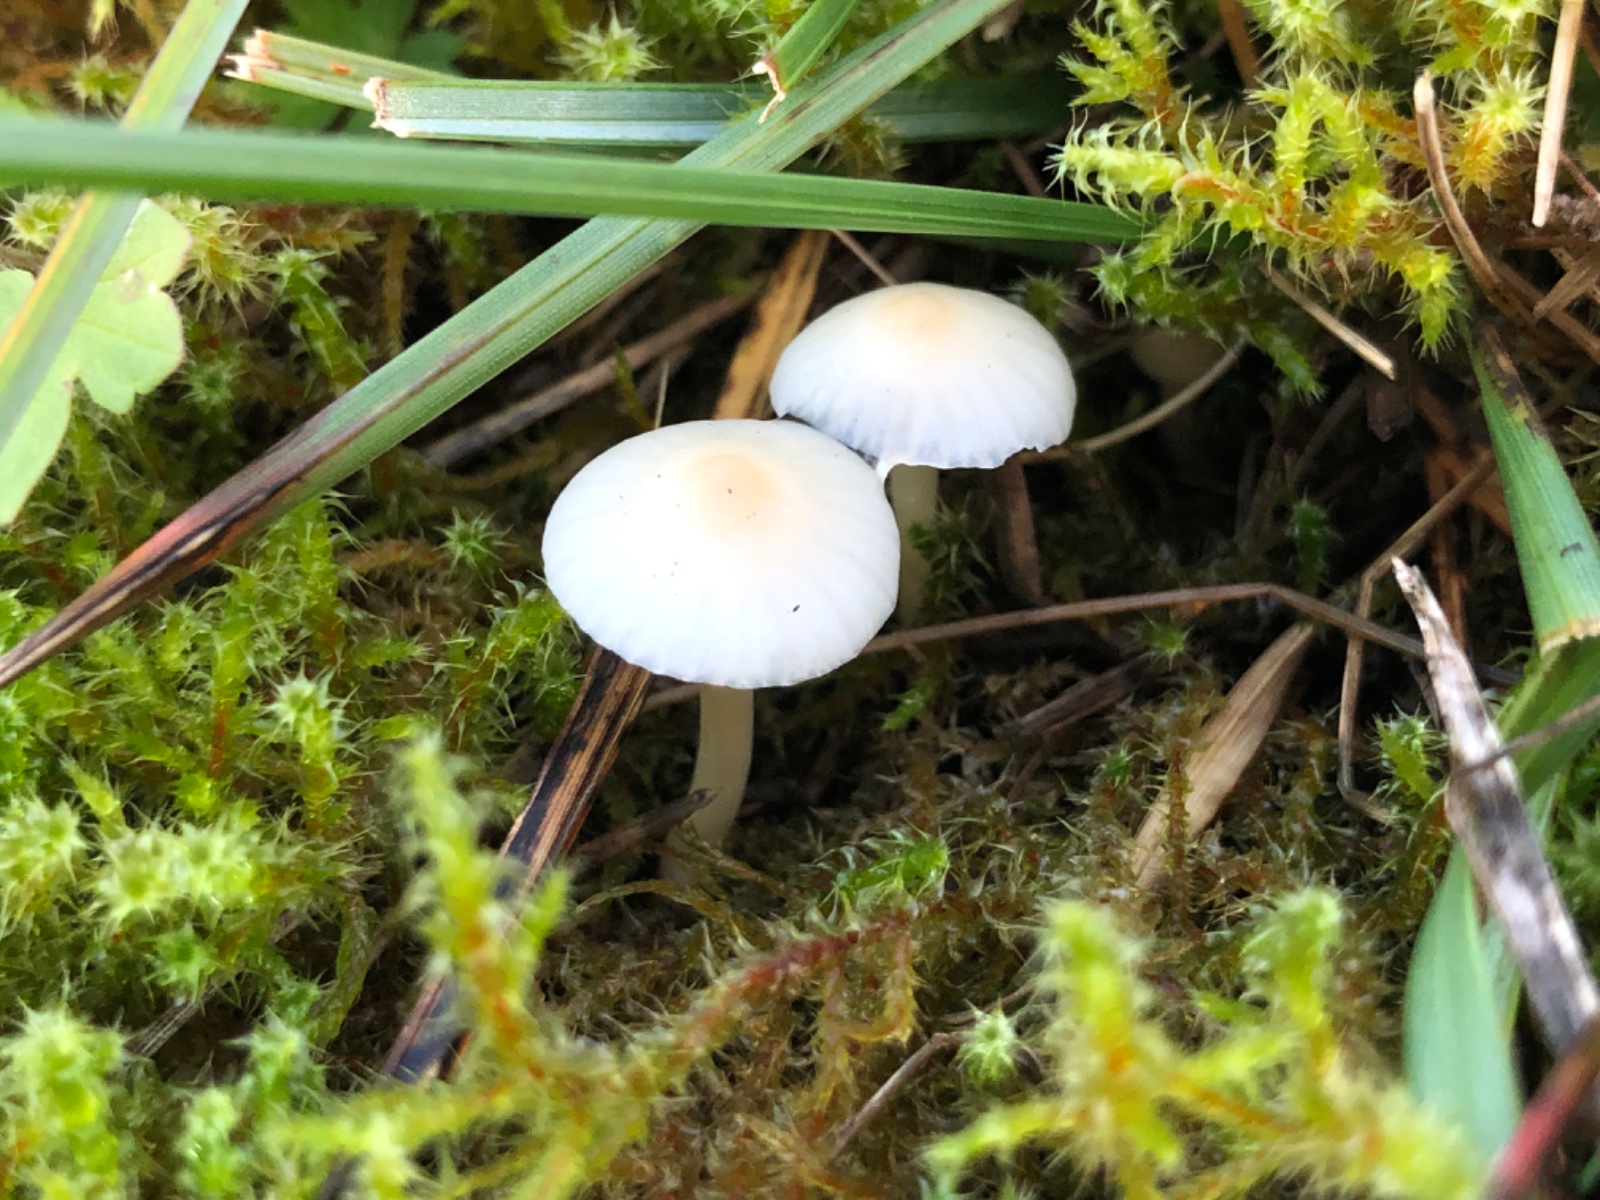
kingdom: Fungi
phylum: Basidiomycota
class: Agaricomycetes
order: Agaricales
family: Hygrophoraceae
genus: Cuphophyllus
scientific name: Cuphophyllus
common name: vokshat
